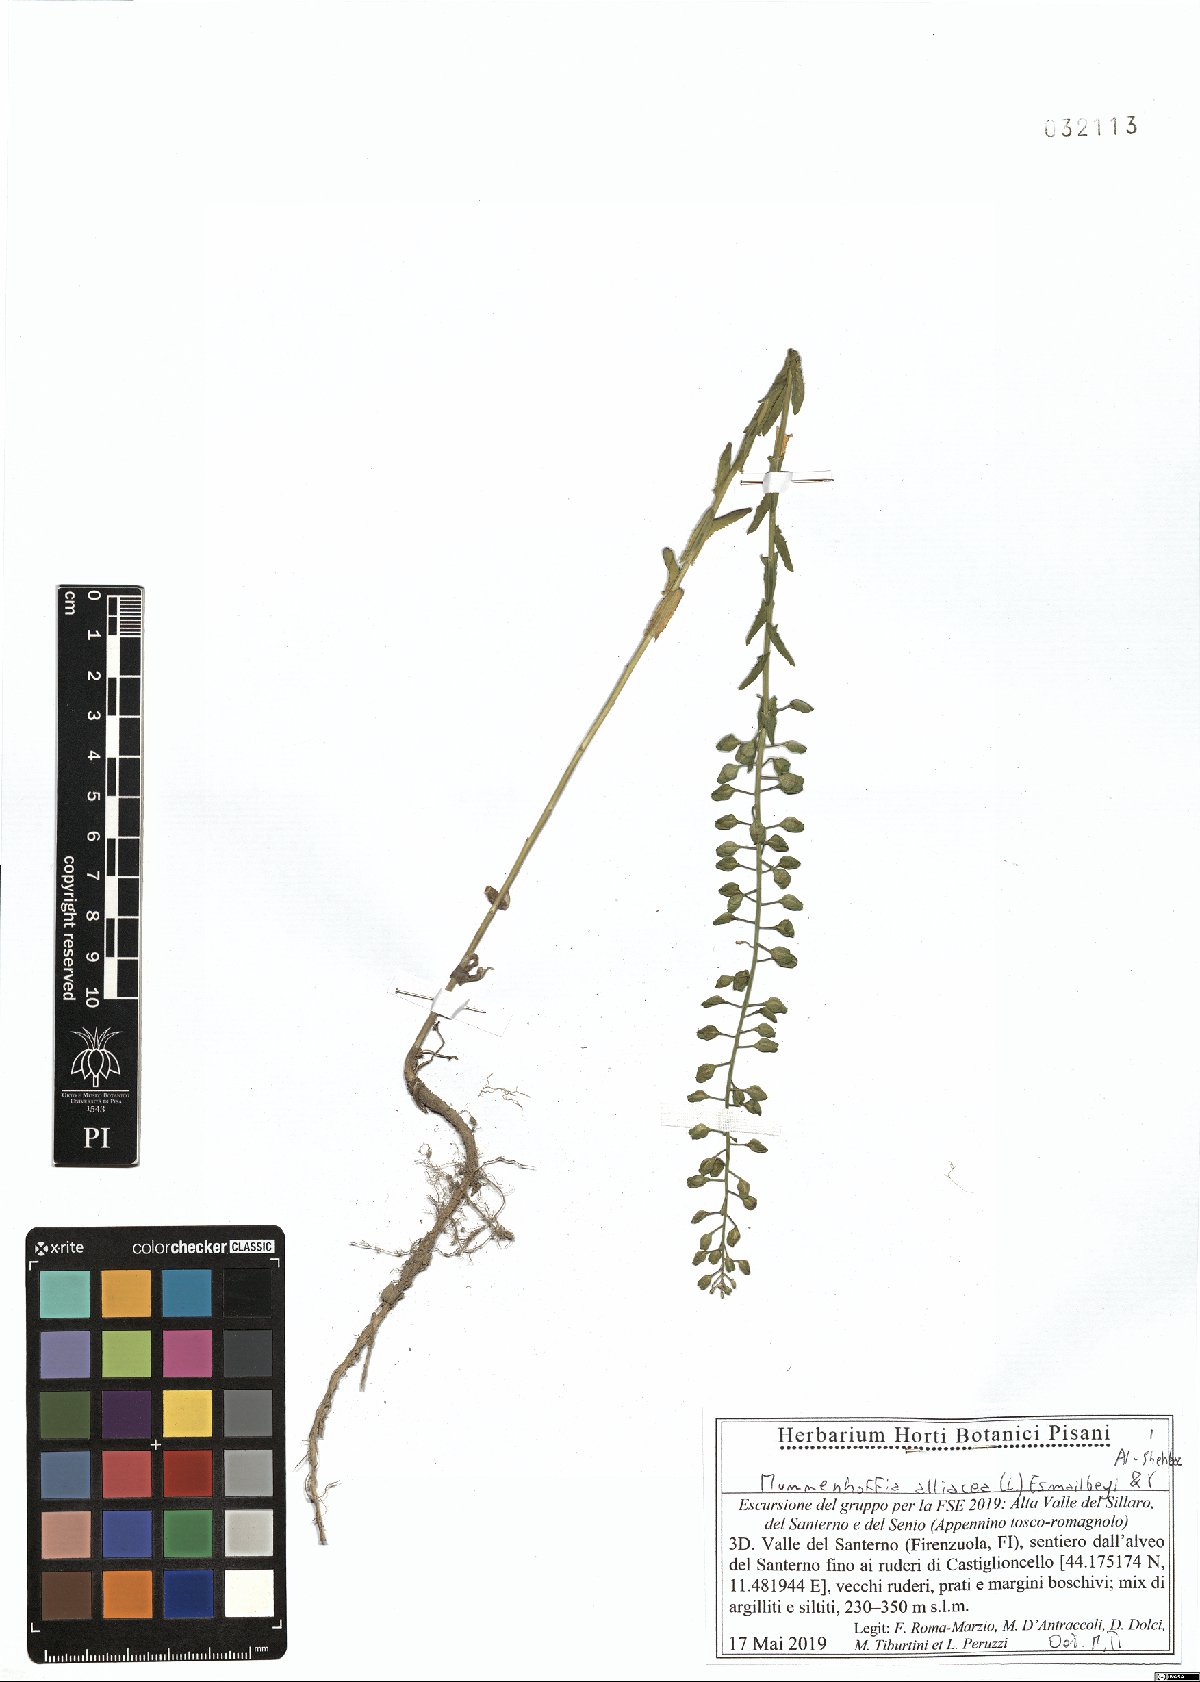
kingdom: Plantae
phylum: Tracheophyta
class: Magnoliopsida
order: Brassicales
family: Brassicaceae
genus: Mummenhoffia
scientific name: Mummenhoffia alliacea
